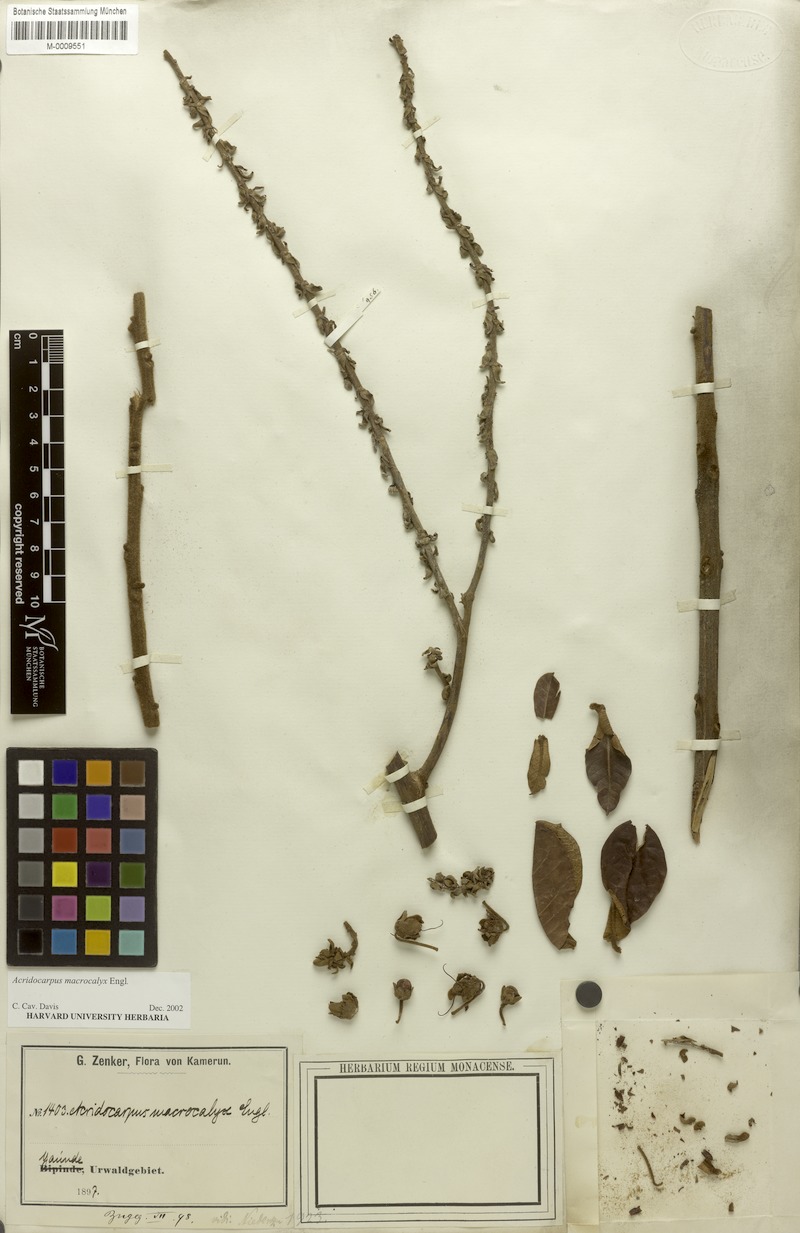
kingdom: Plantae
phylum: Tracheophyta
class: Magnoliopsida
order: Malpighiales
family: Malpighiaceae
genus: Acridocarpus
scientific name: Acridocarpus macrocalyx
